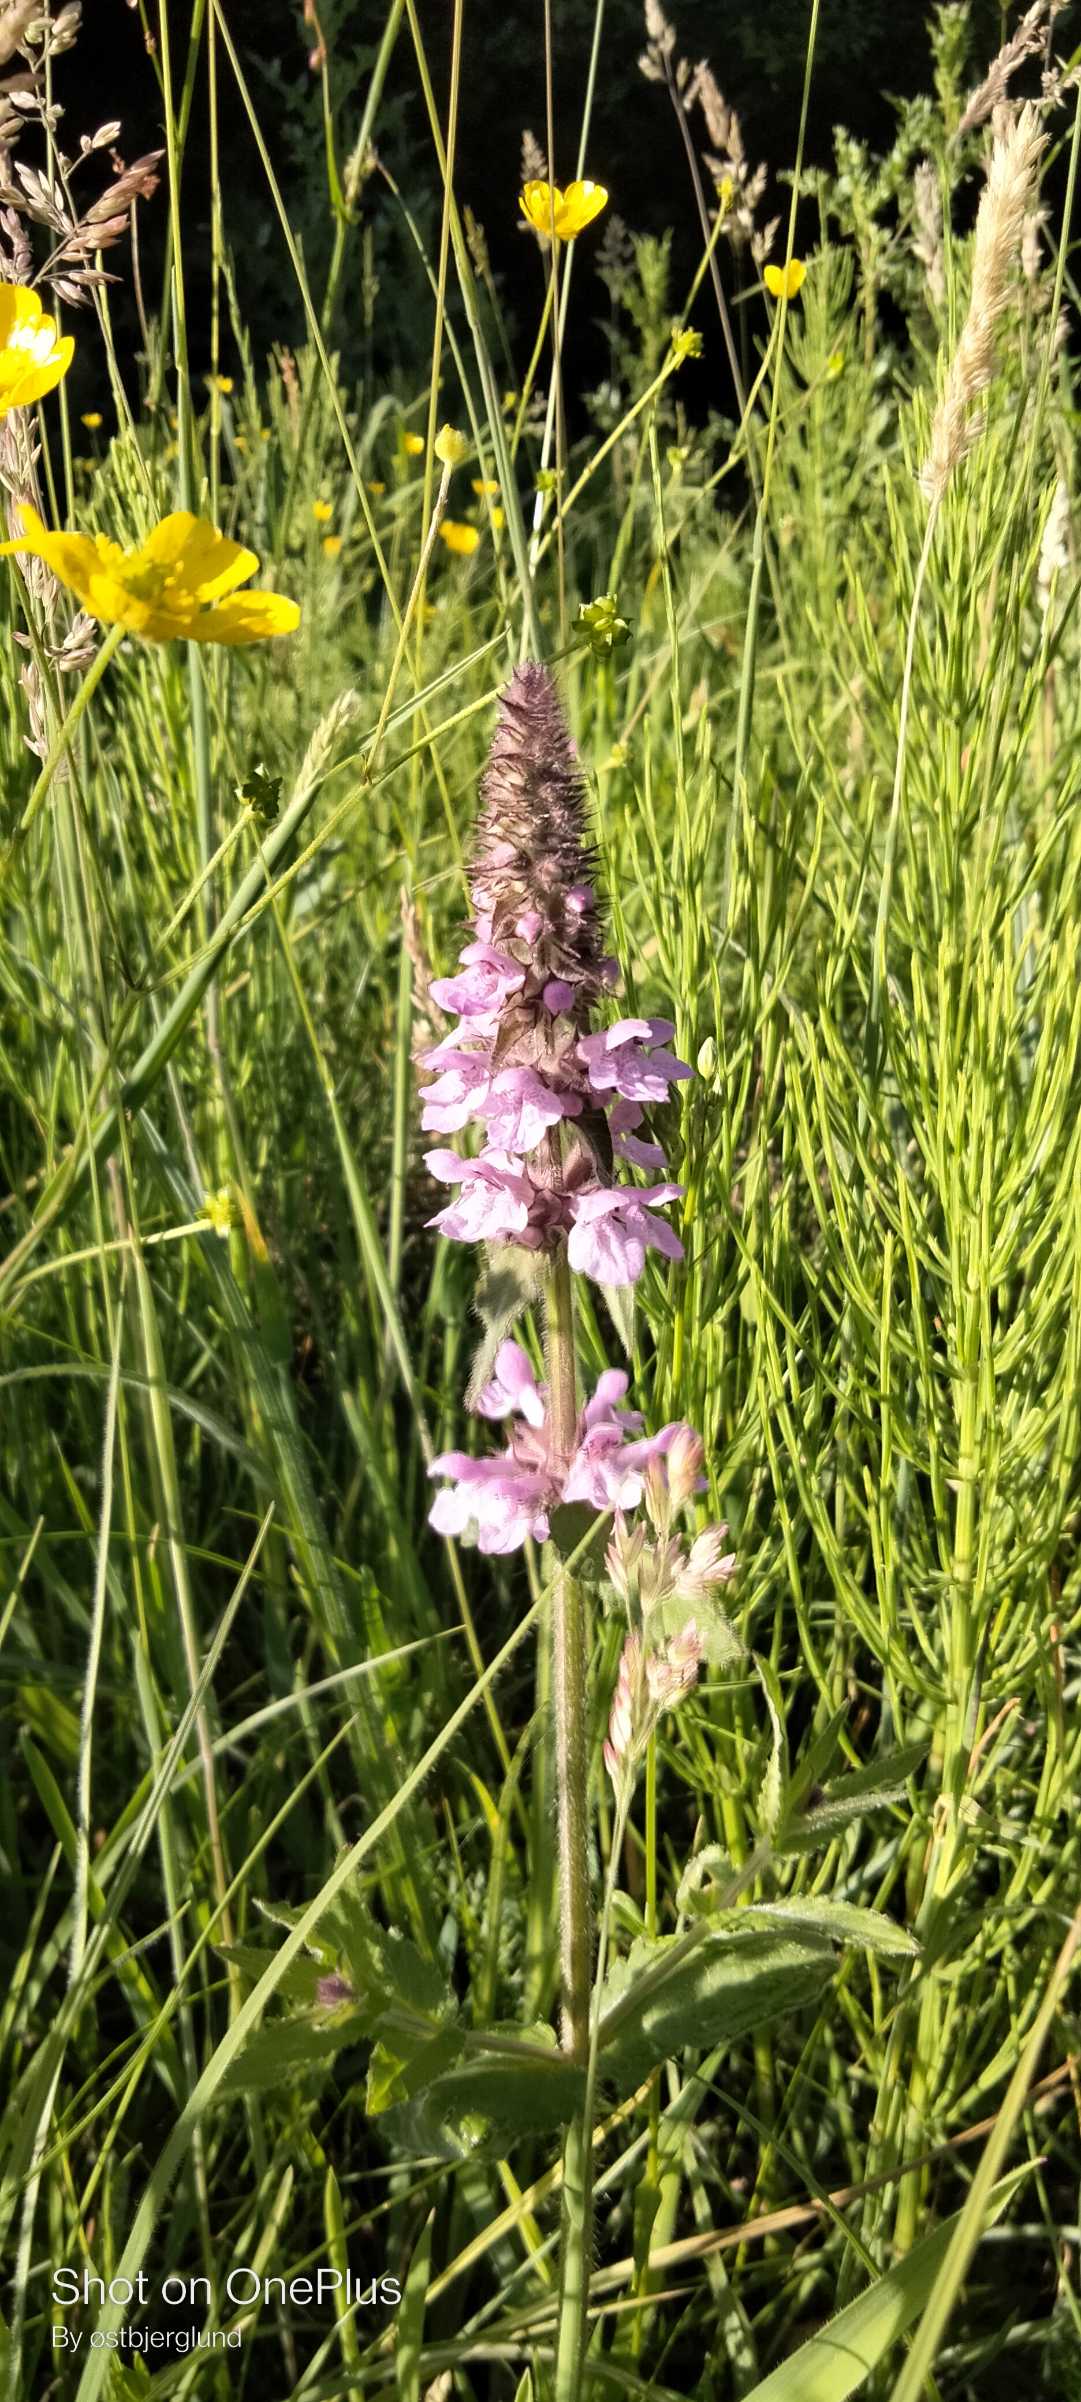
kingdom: Plantae
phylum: Tracheophyta
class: Magnoliopsida
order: Lamiales
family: Lamiaceae
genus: Stachys
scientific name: Stachys palustris
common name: Kær-galtetand
